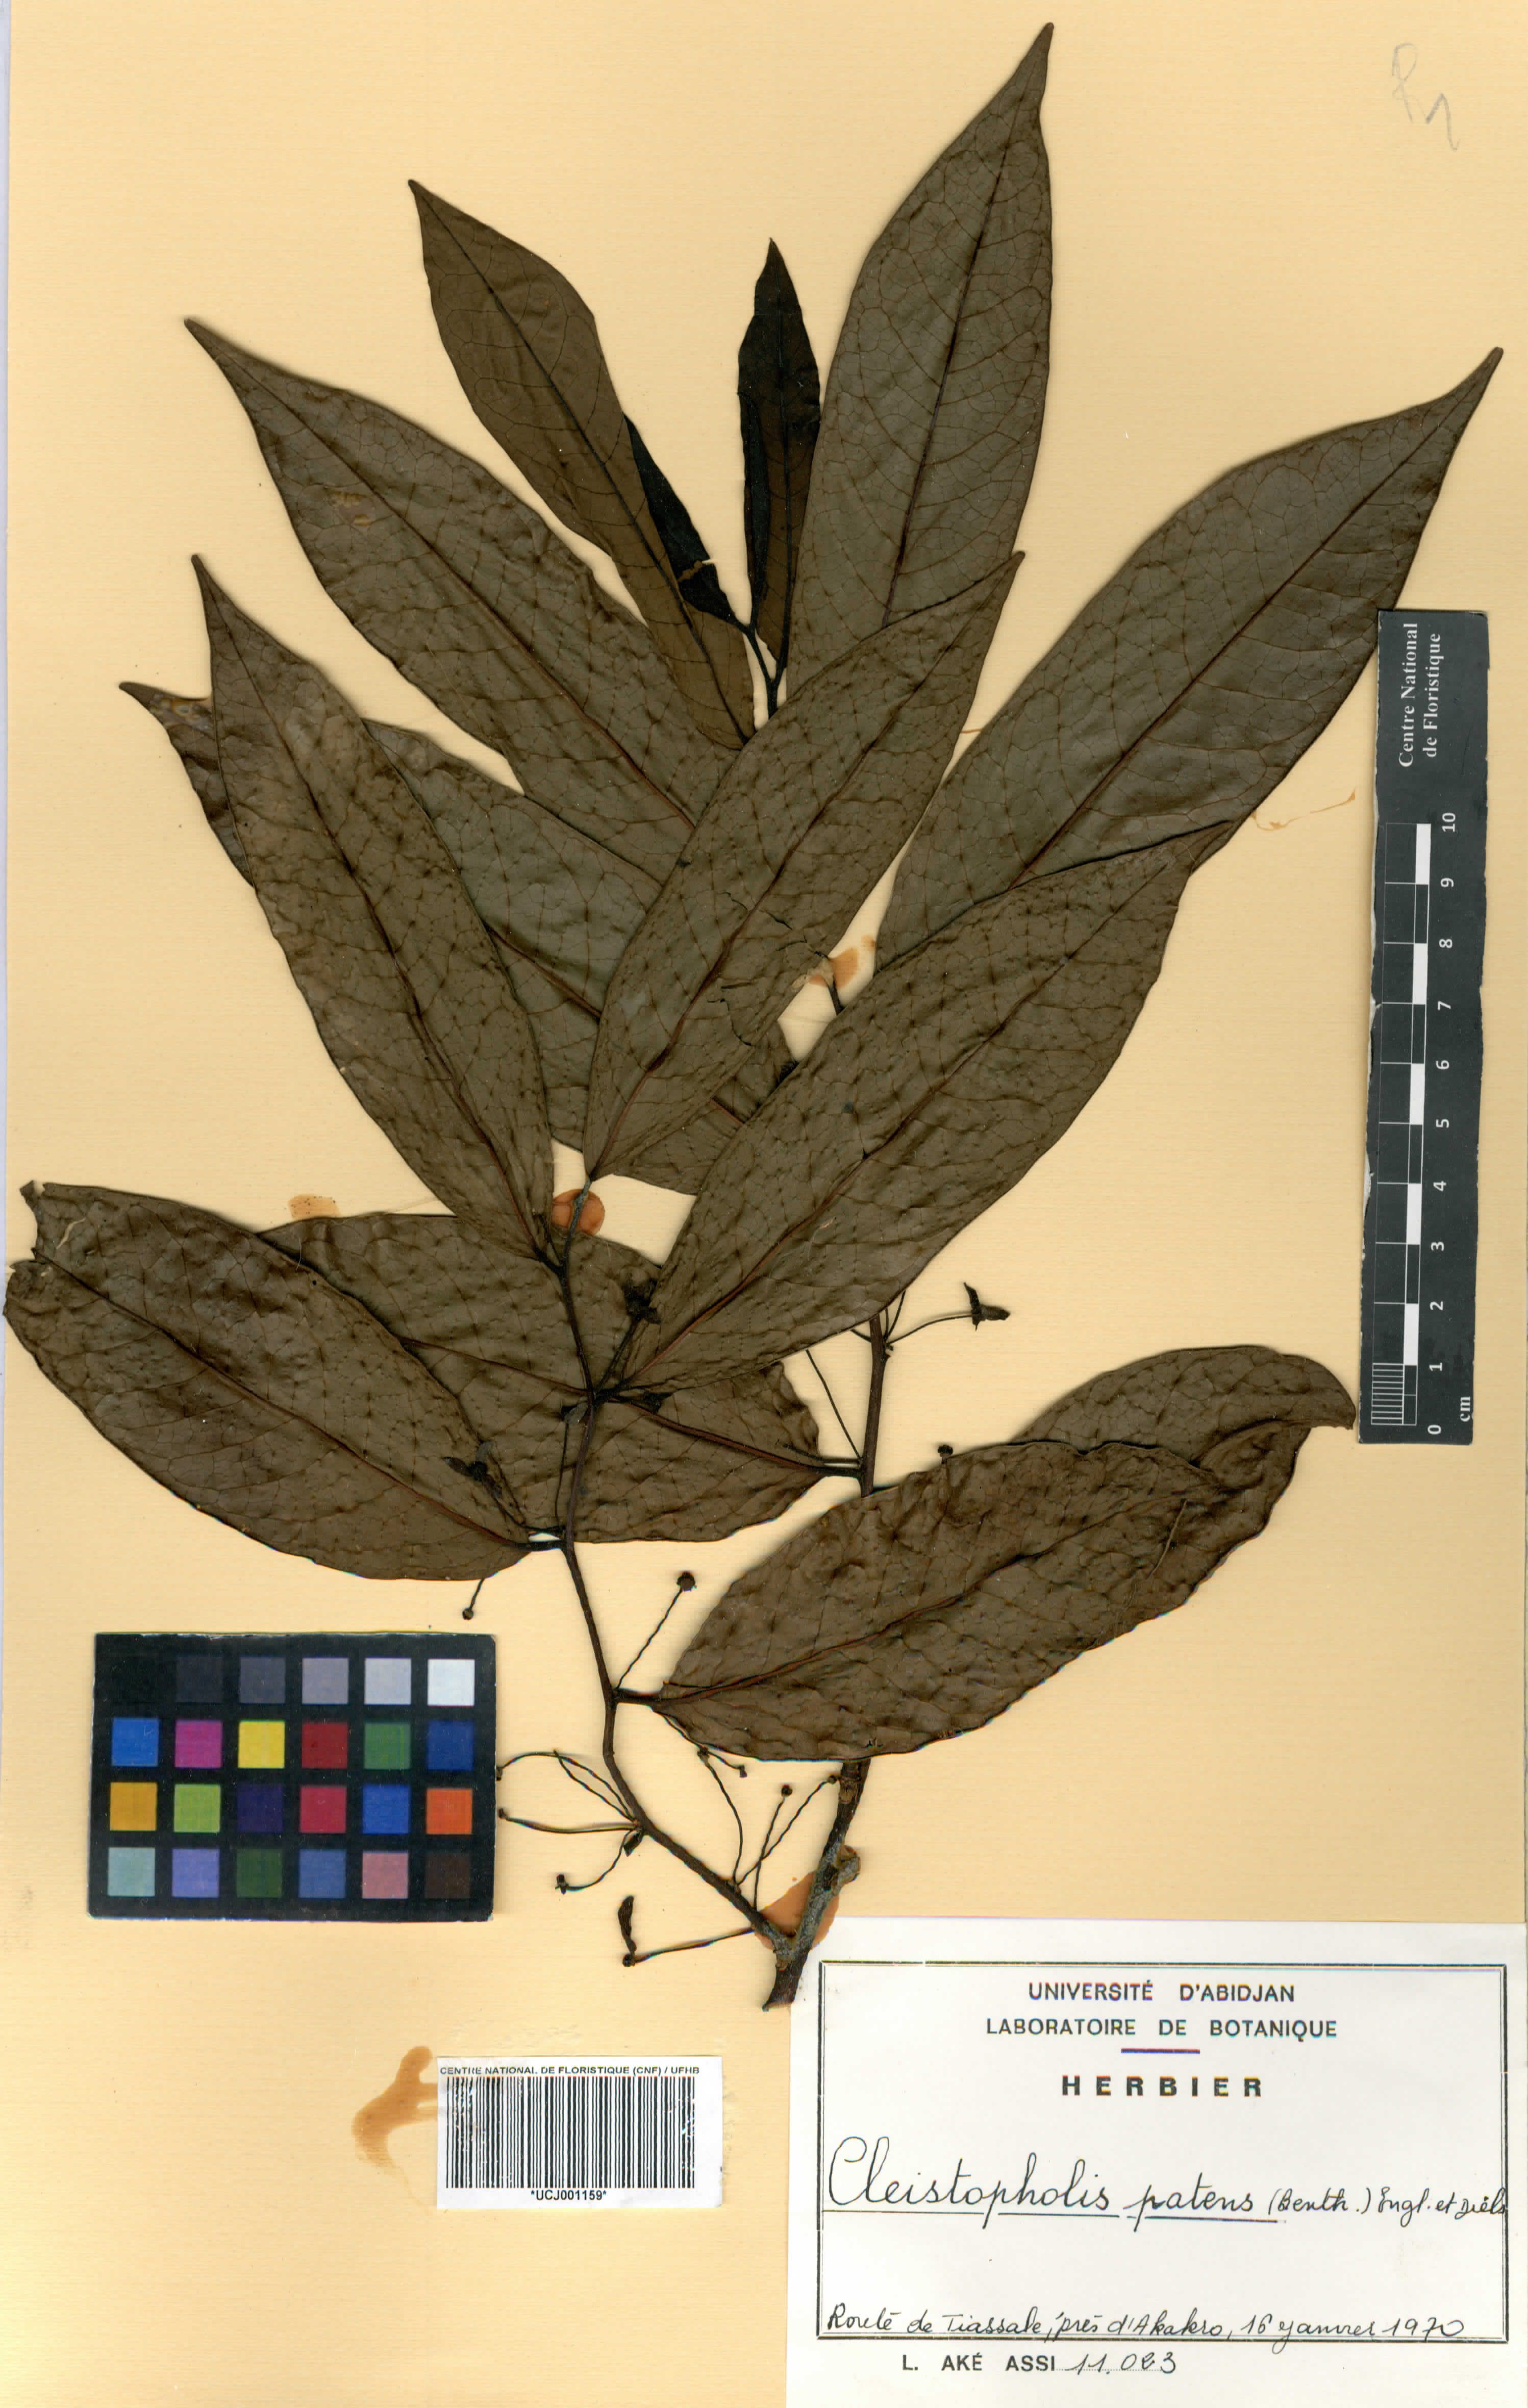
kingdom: Plantae
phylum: Tracheophyta
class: Magnoliopsida
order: Magnoliales
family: Annonaceae
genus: Cleistopholis
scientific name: Cleistopholis patens
